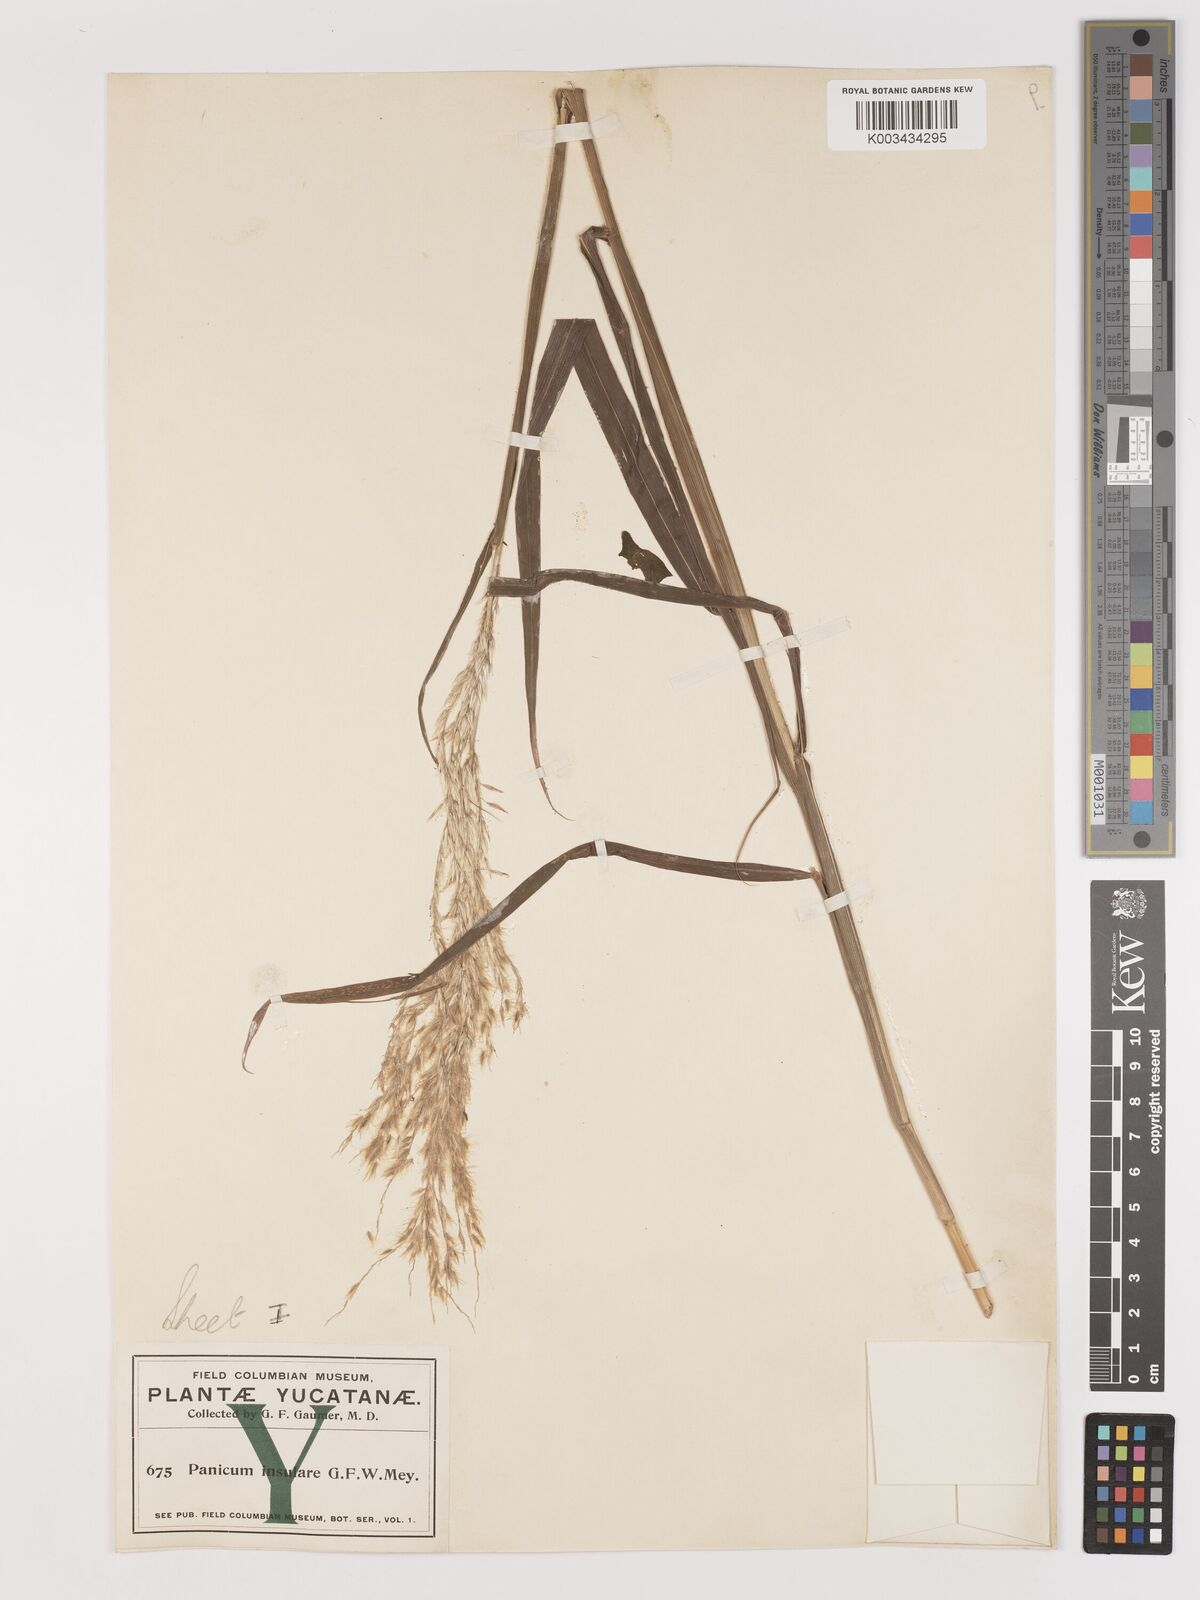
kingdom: Plantae
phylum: Tracheophyta
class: Liliopsida
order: Poales
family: Poaceae
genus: Digitaria
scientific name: Digitaria insularis
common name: Sourgrass
